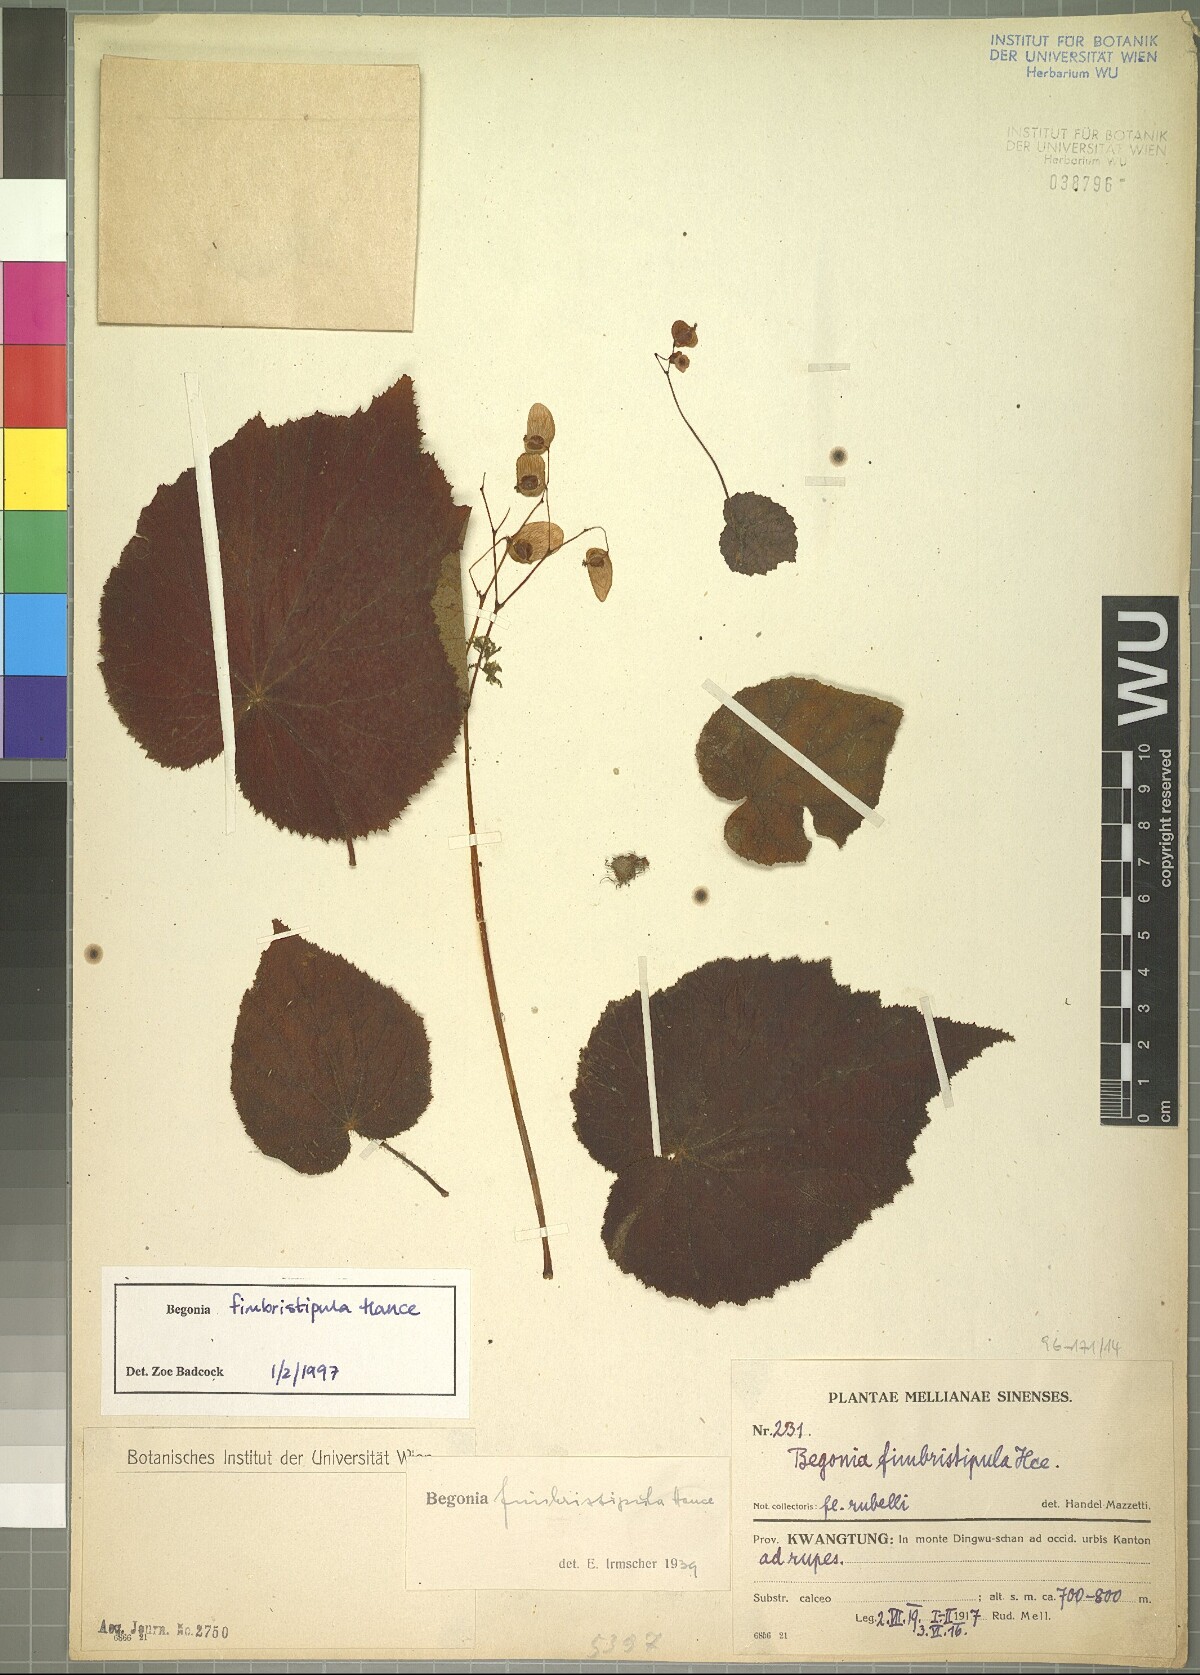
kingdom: Plantae
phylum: Tracheophyta
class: Magnoliopsida
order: Cucurbitales
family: Begoniaceae
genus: Begonia
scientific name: Begonia fimbristipula
